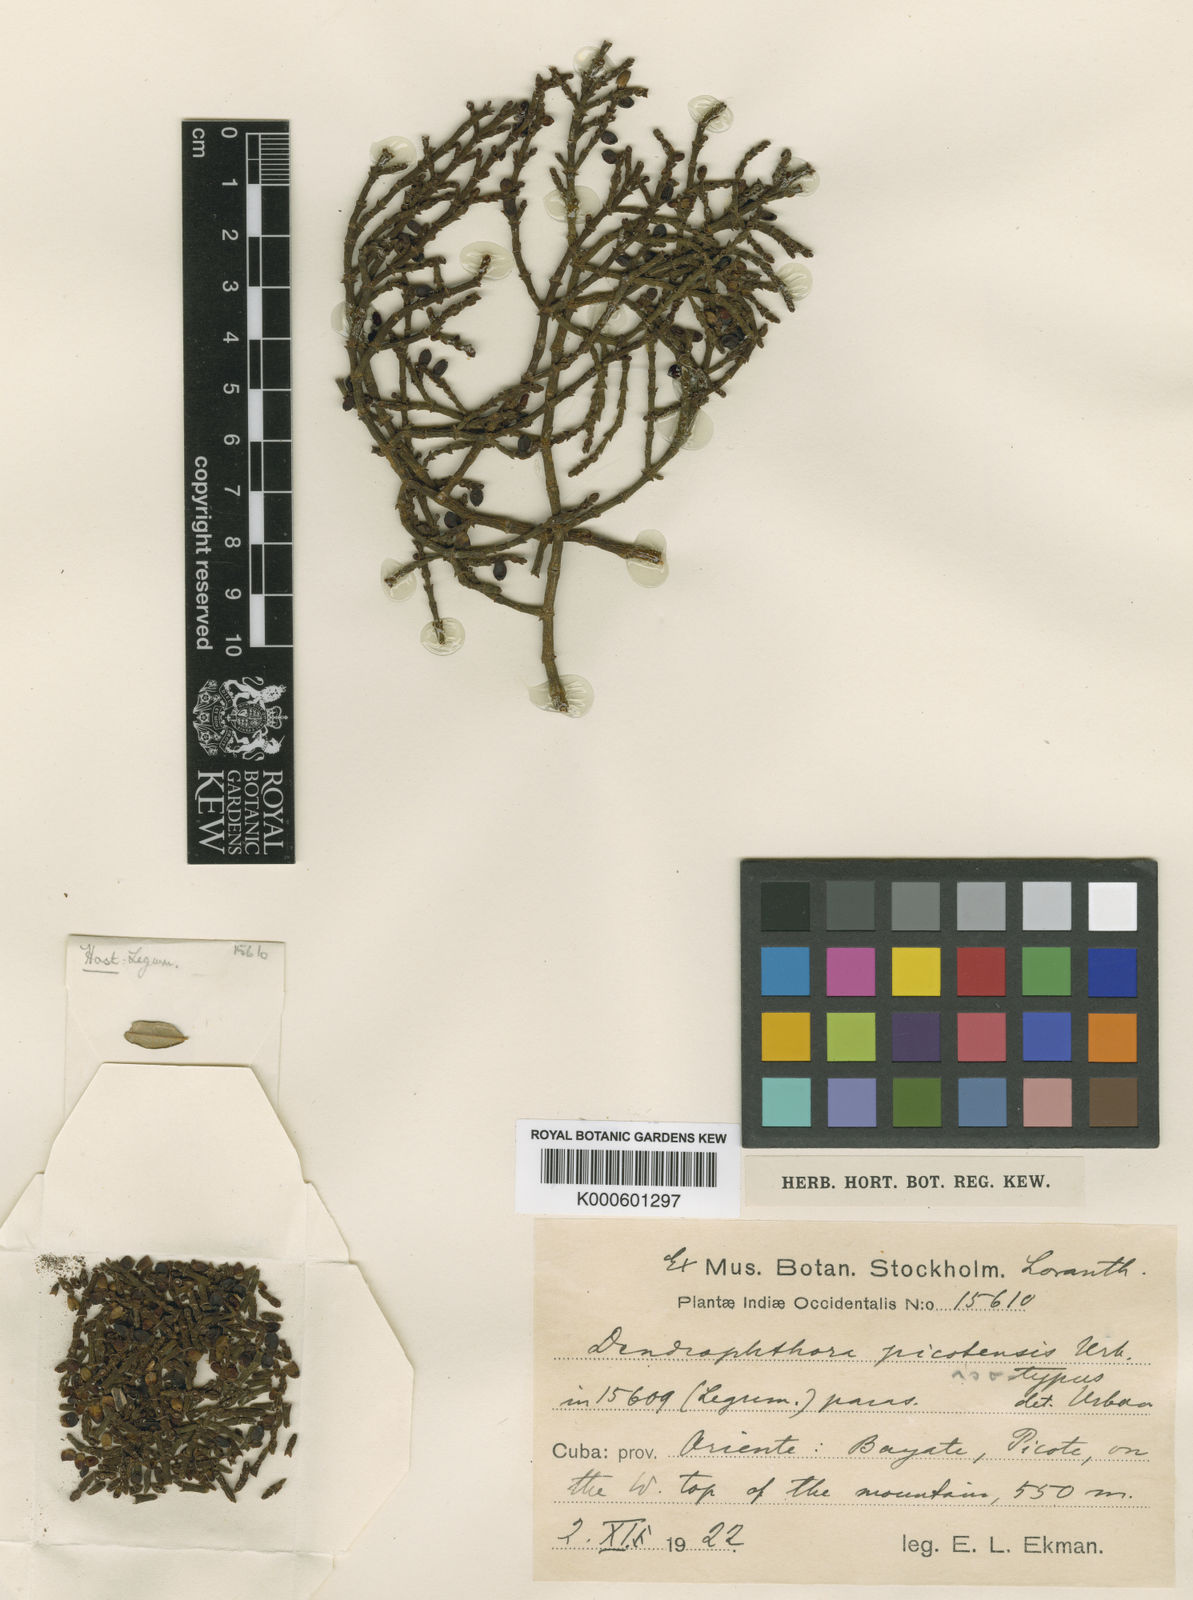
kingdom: Plantae
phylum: Tracheophyta
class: Magnoliopsida
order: Santalales
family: Viscaceae
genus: Dendrophthora
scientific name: Dendrophthora picotensis
